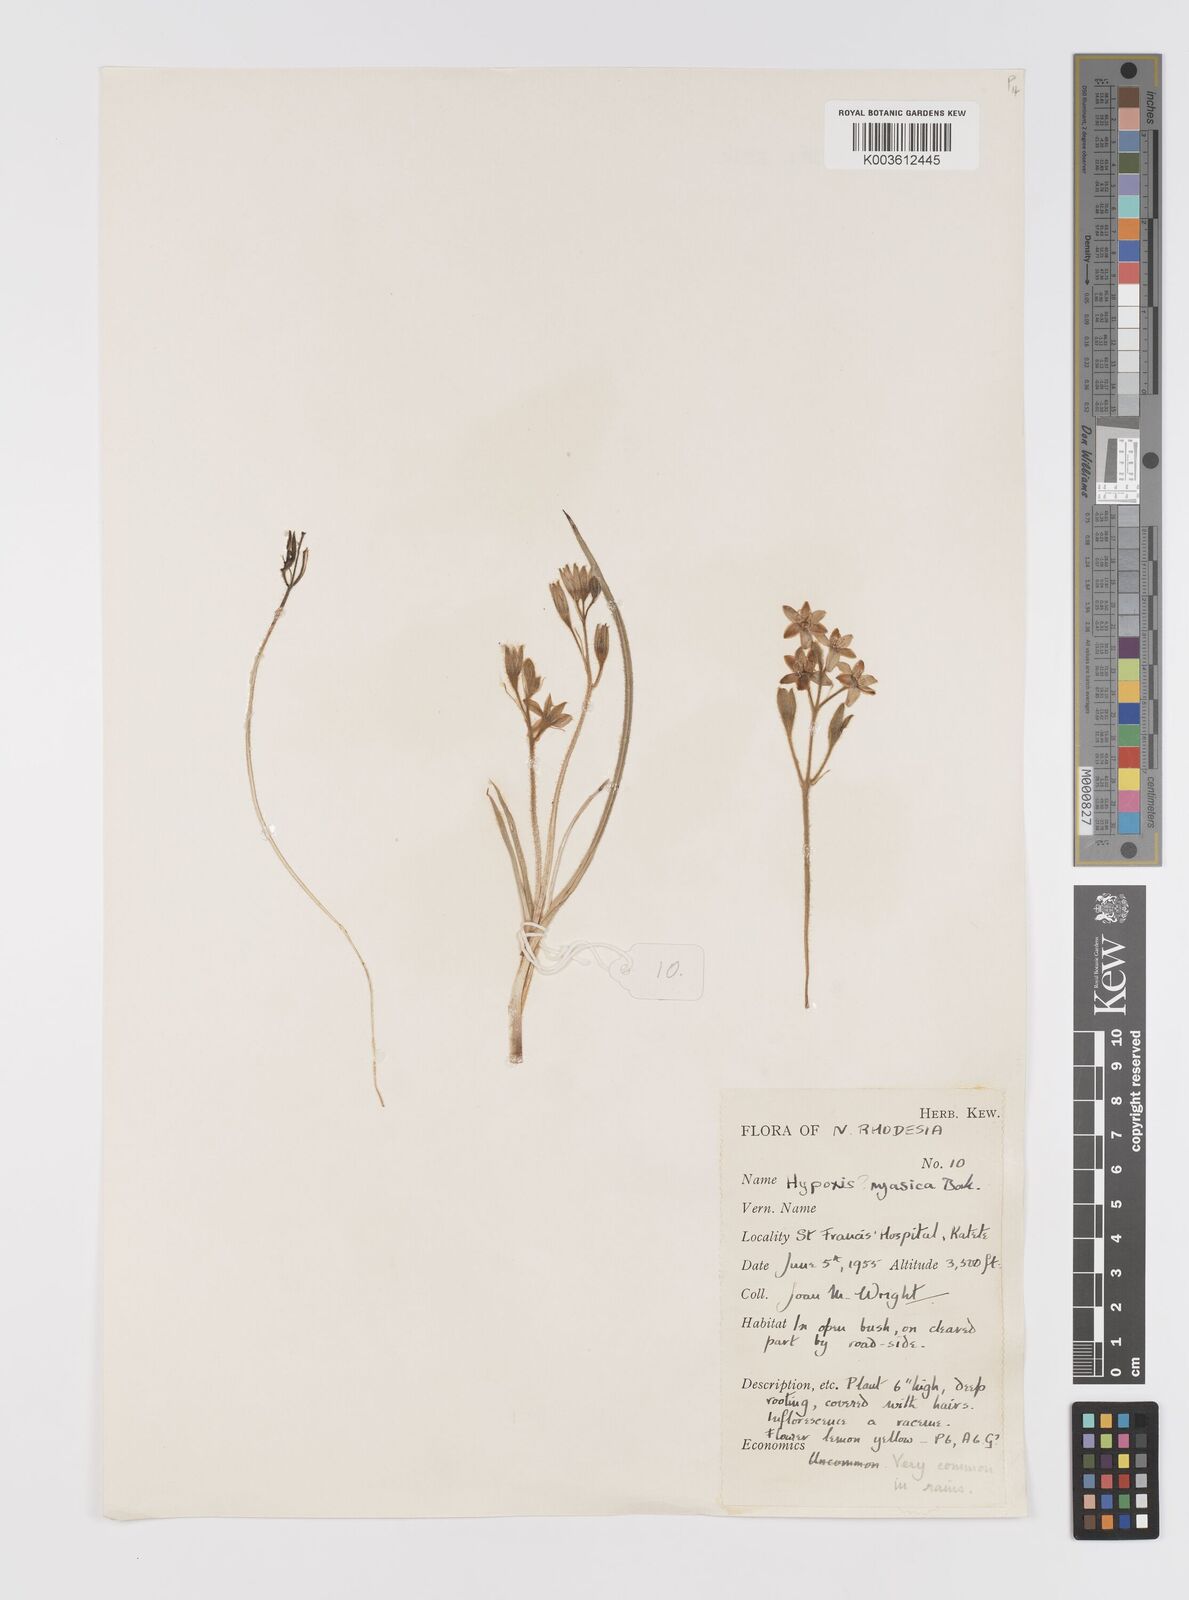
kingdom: Plantae
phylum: Tracheophyta
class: Liliopsida
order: Asparagales
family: Hypoxidaceae
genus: Hypoxis
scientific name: Hypoxis nyasica
